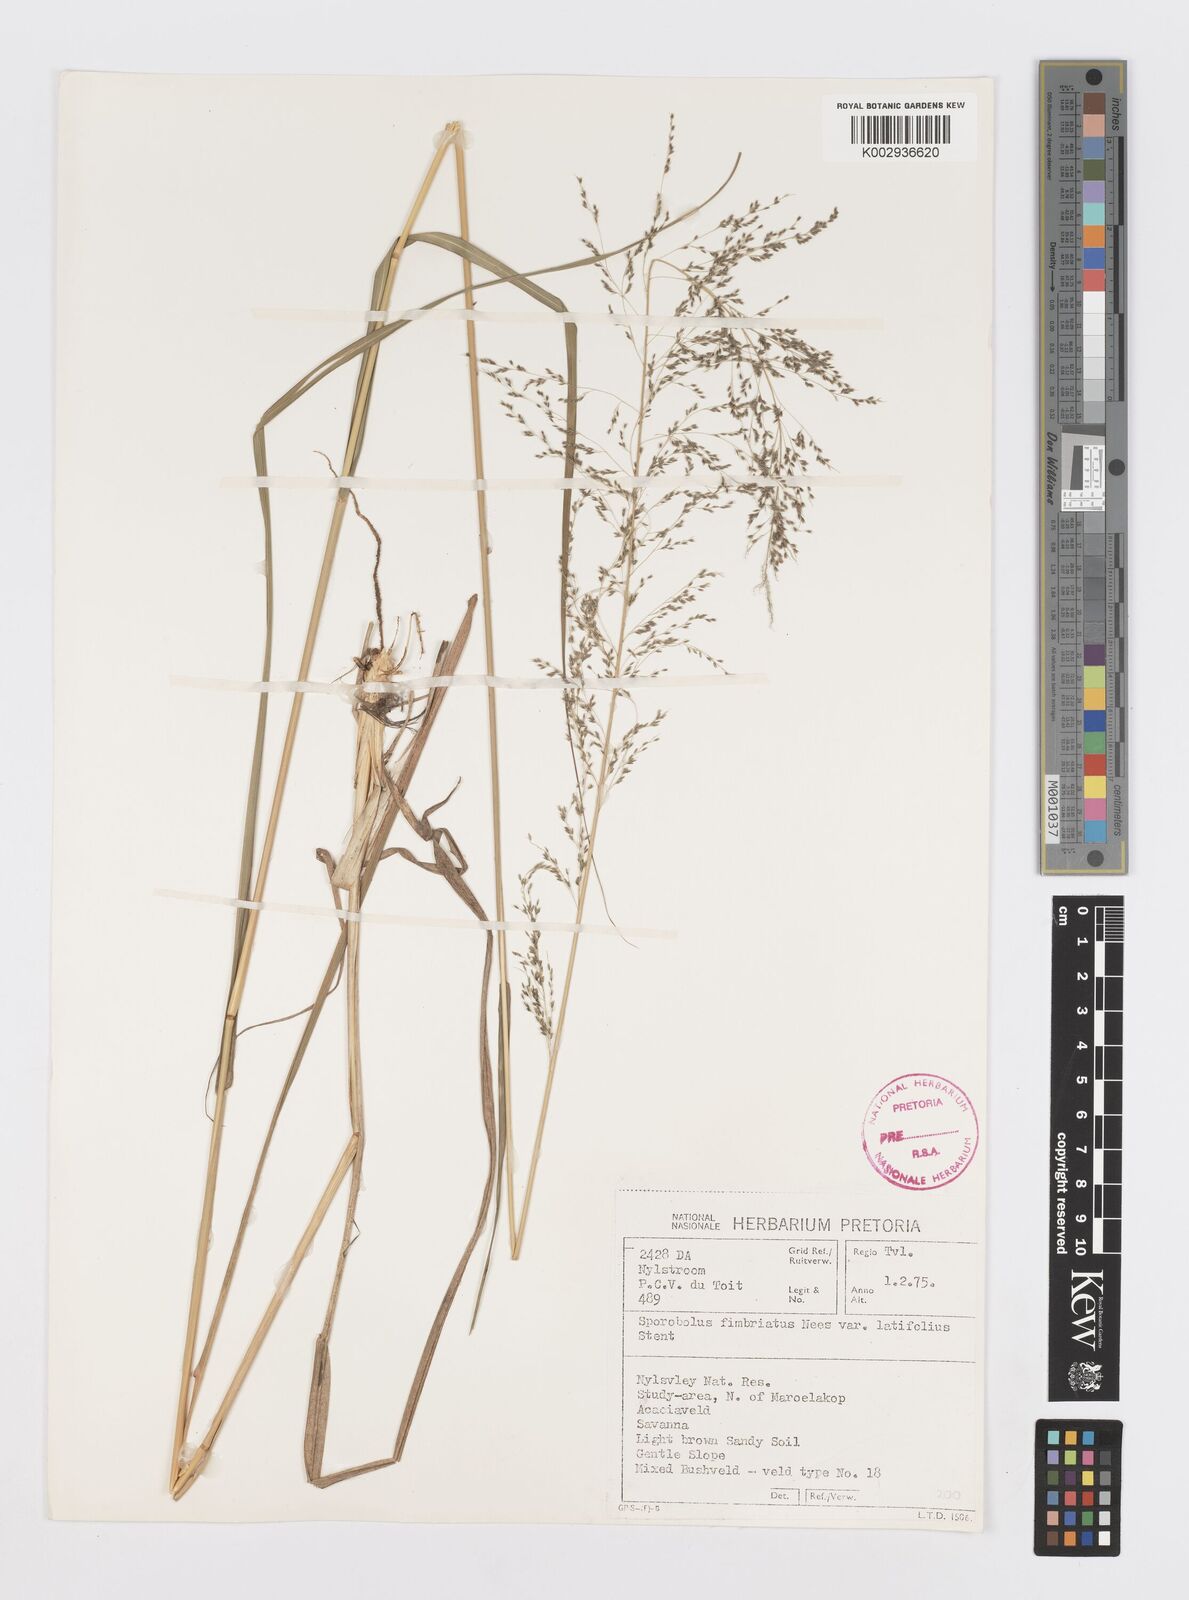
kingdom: Plantae
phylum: Tracheophyta
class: Liliopsida
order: Poales
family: Poaceae
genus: Sporobolus
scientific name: Sporobolus fimbriatus
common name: Fringed dropseed
